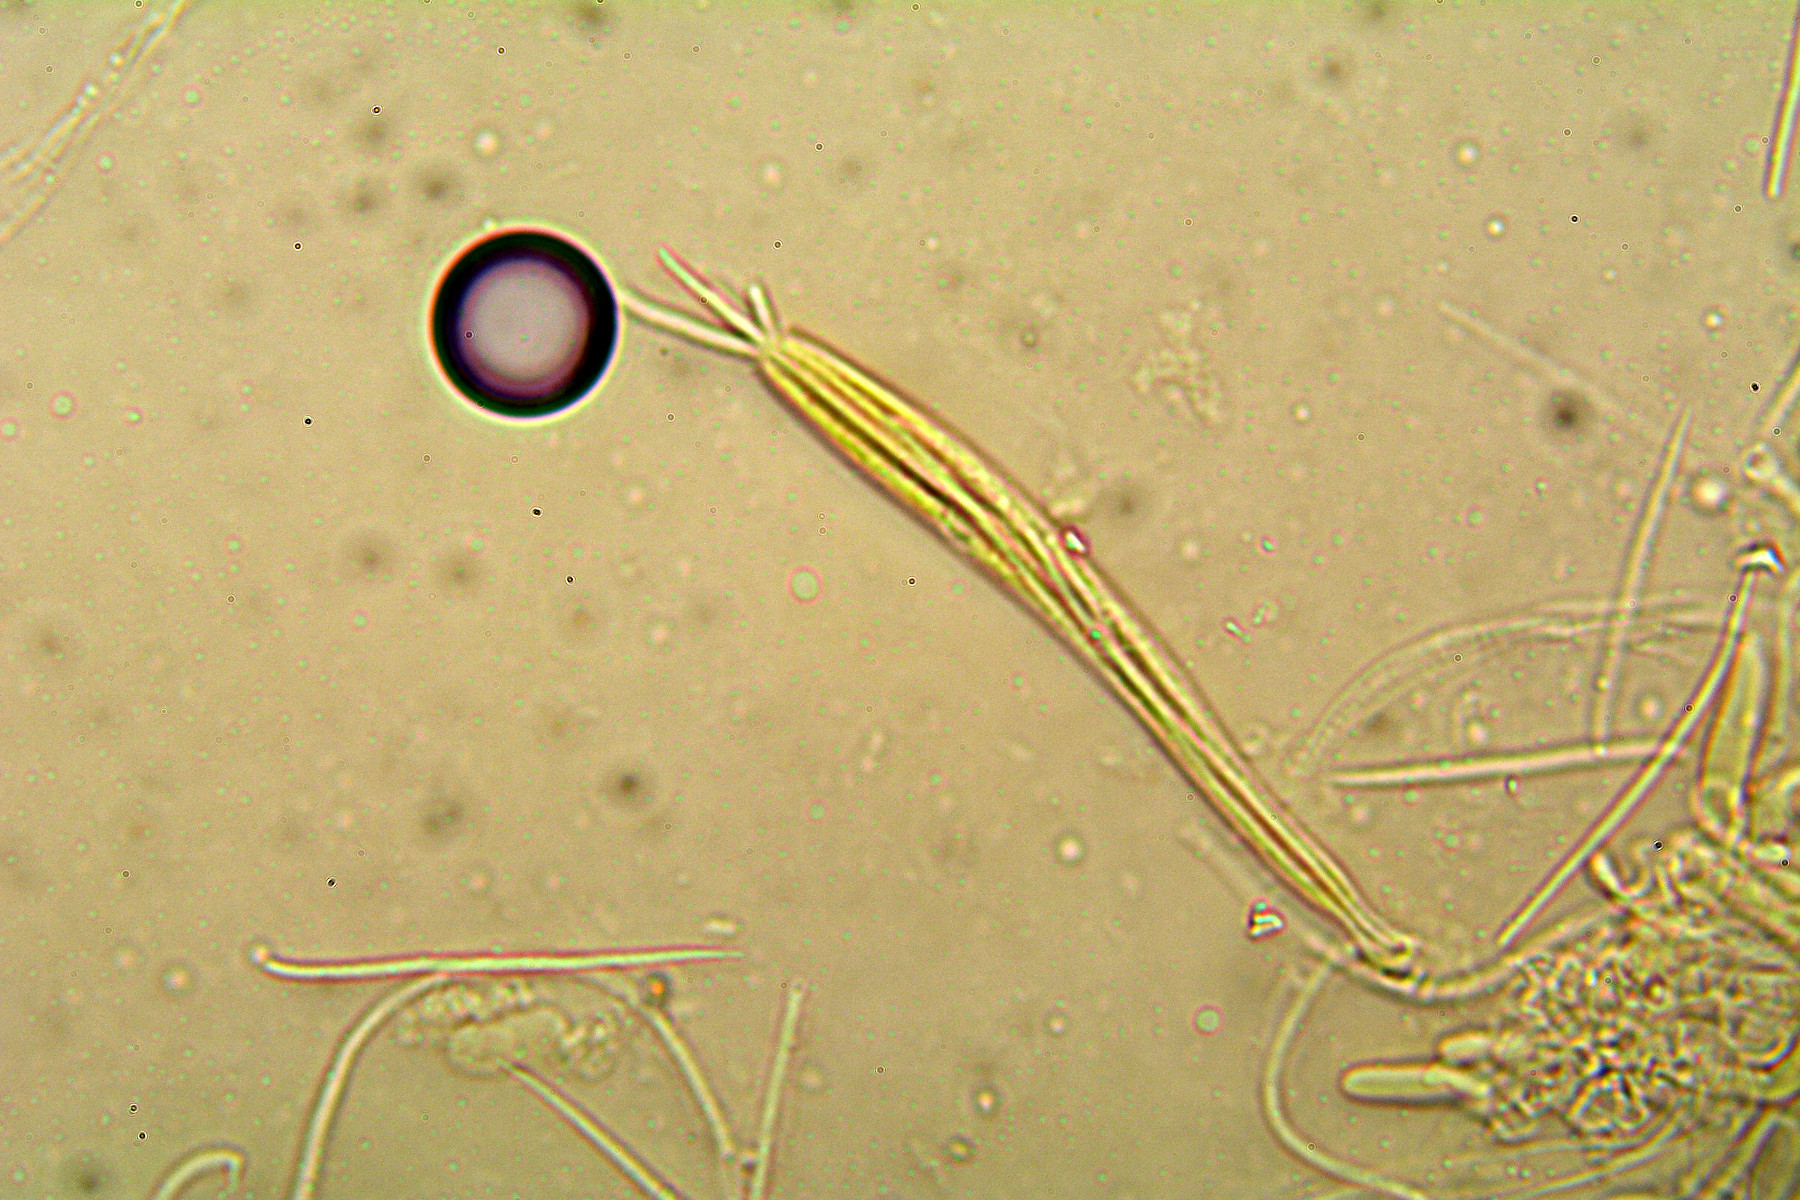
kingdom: Fungi
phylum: Ascomycota
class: Leotiomycetes
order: Rhytismatales
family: Rhytismataceae
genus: Lophodermium
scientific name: Lophodermium caricinum
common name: star-fureplet
